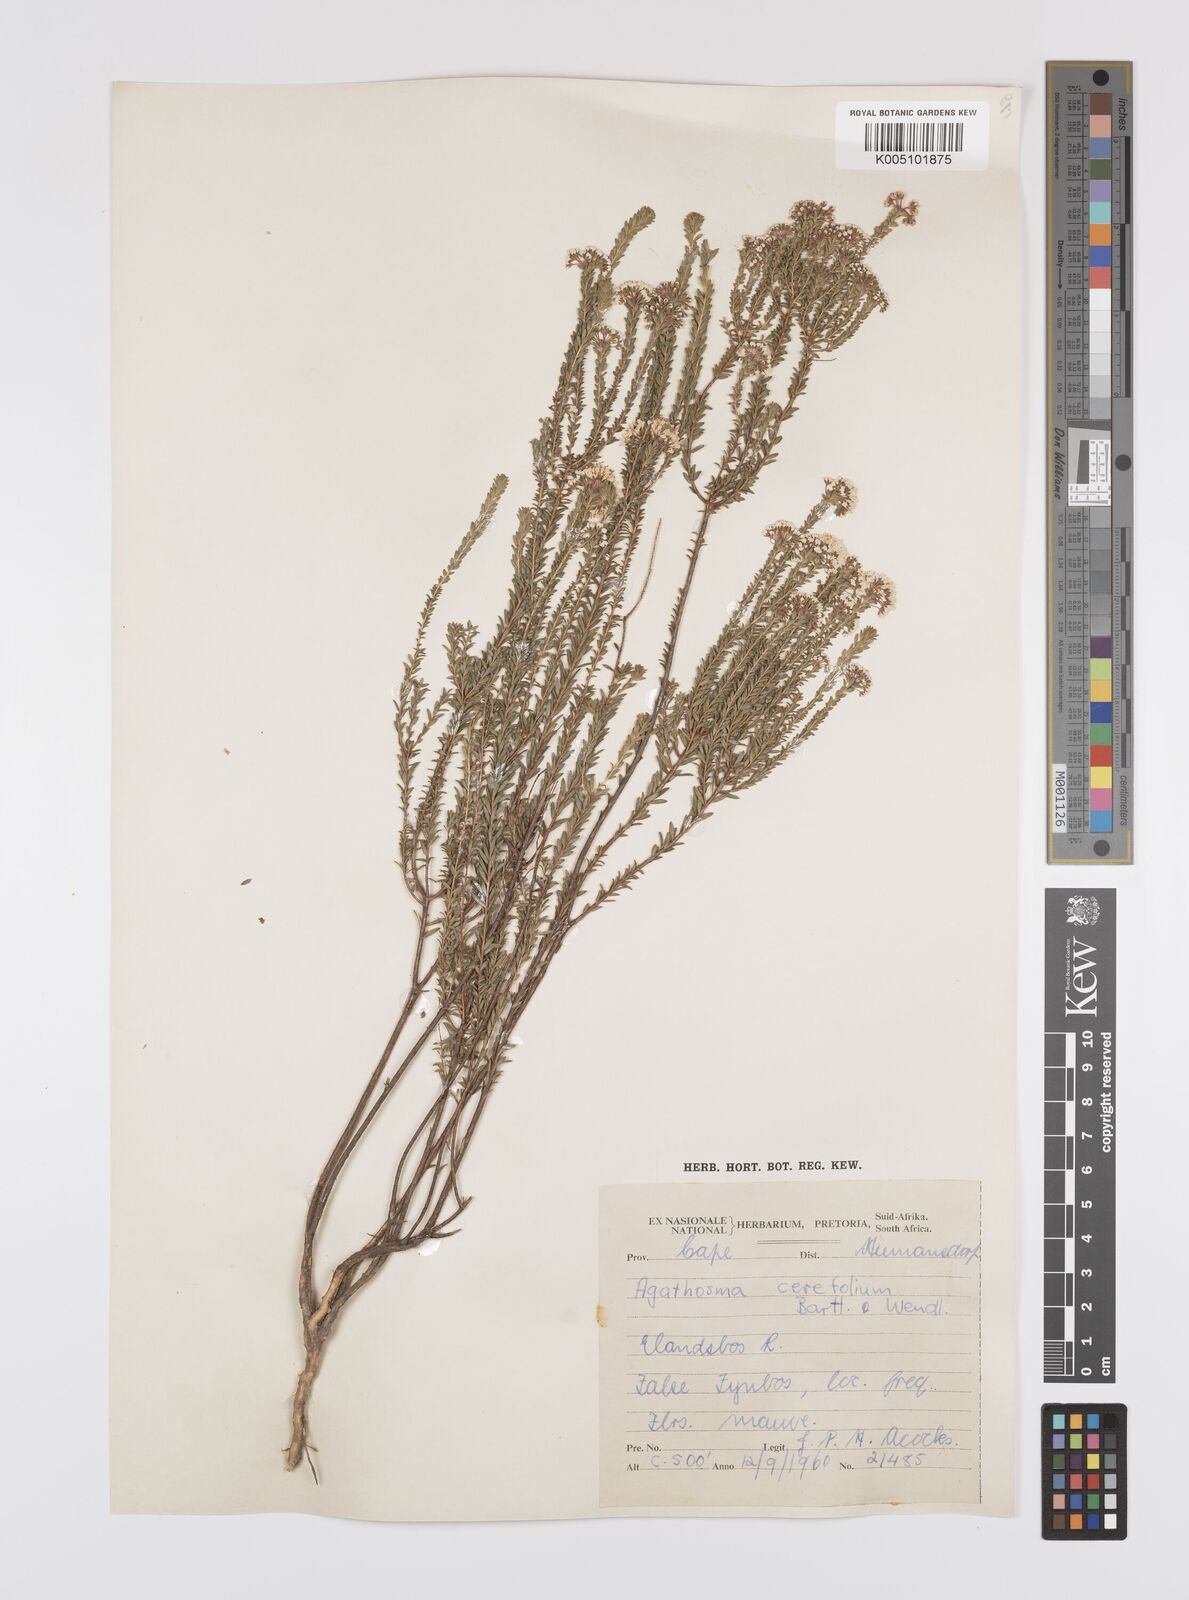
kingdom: Plantae
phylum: Tracheophyta
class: Magnoliopsida
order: Sapindales
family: Rutaceae
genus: Agathosma
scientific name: Agathosma cerefolia
